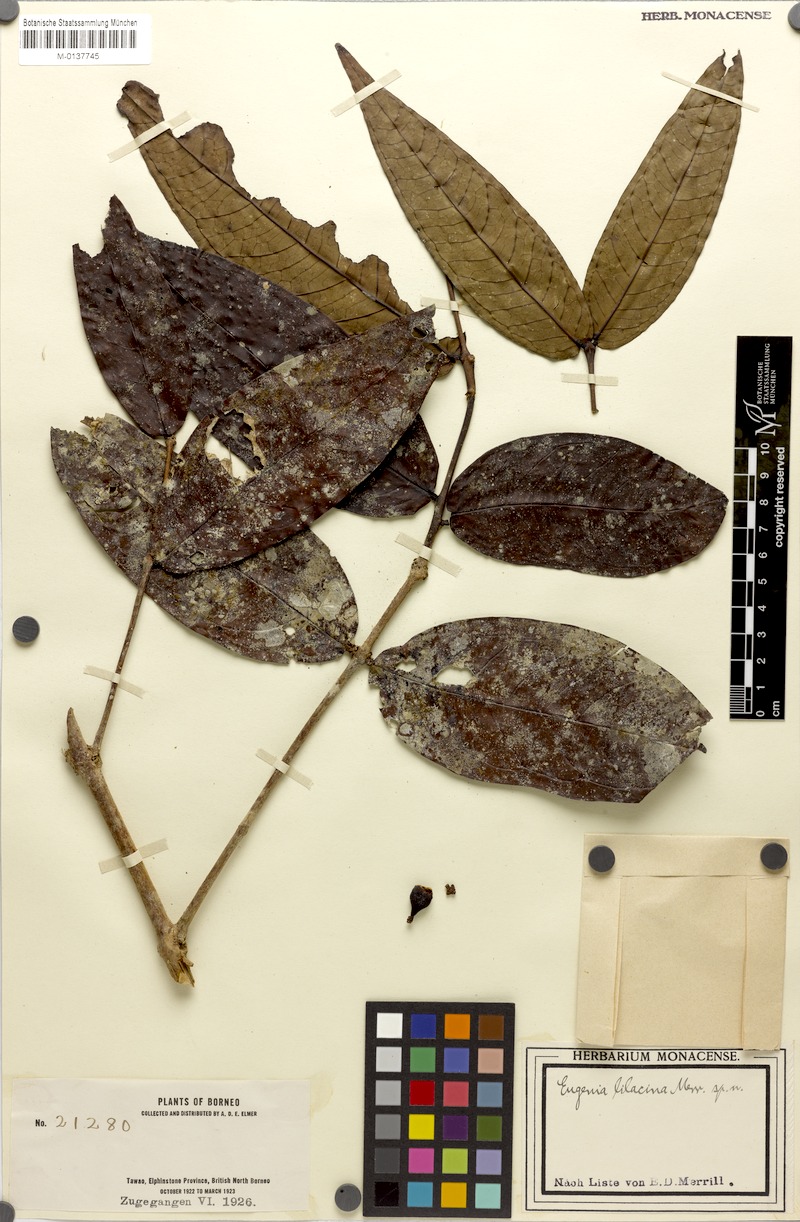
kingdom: Plantae
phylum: Tracheophyta
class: Magnoliopsida
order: Myrtales
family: Myrtaceae
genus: Syzygium
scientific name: Syzygium lilacinum
